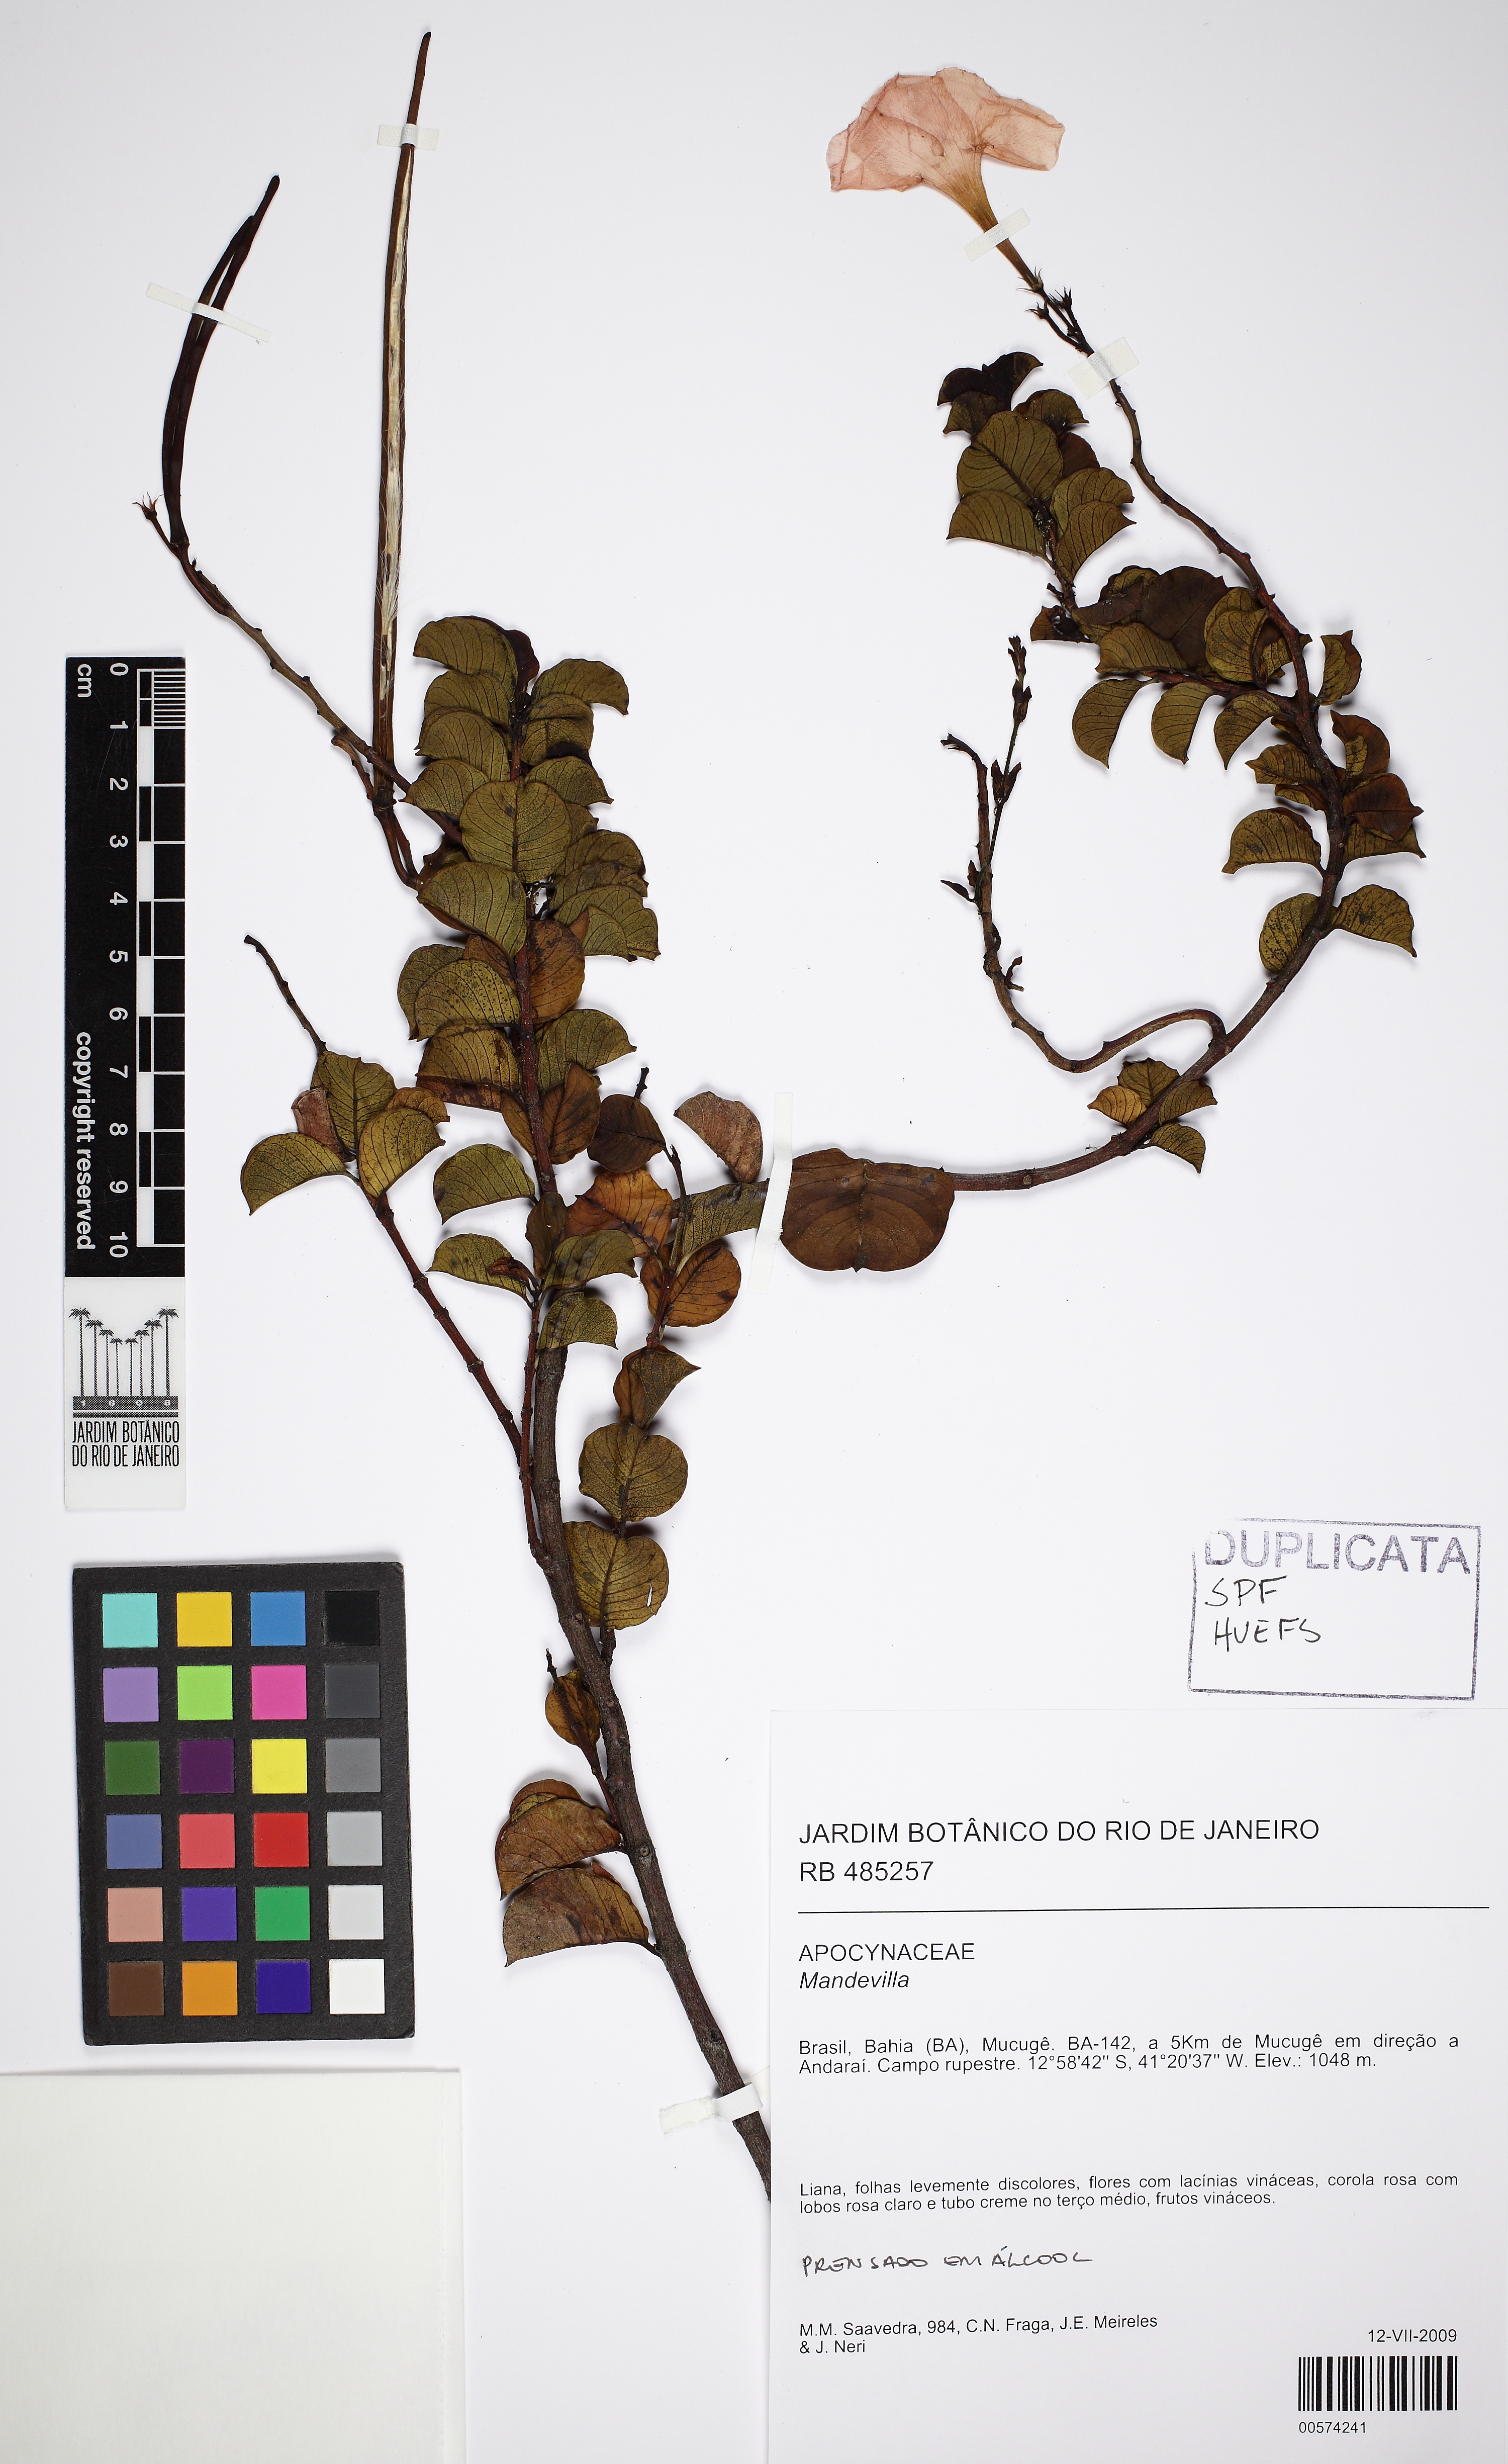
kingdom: Plantae
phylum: Tracheophyta
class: Magnoliopsida
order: Gentianales
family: Apocynaceae
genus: Mandevilla
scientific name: Mandevilla bahiensis
